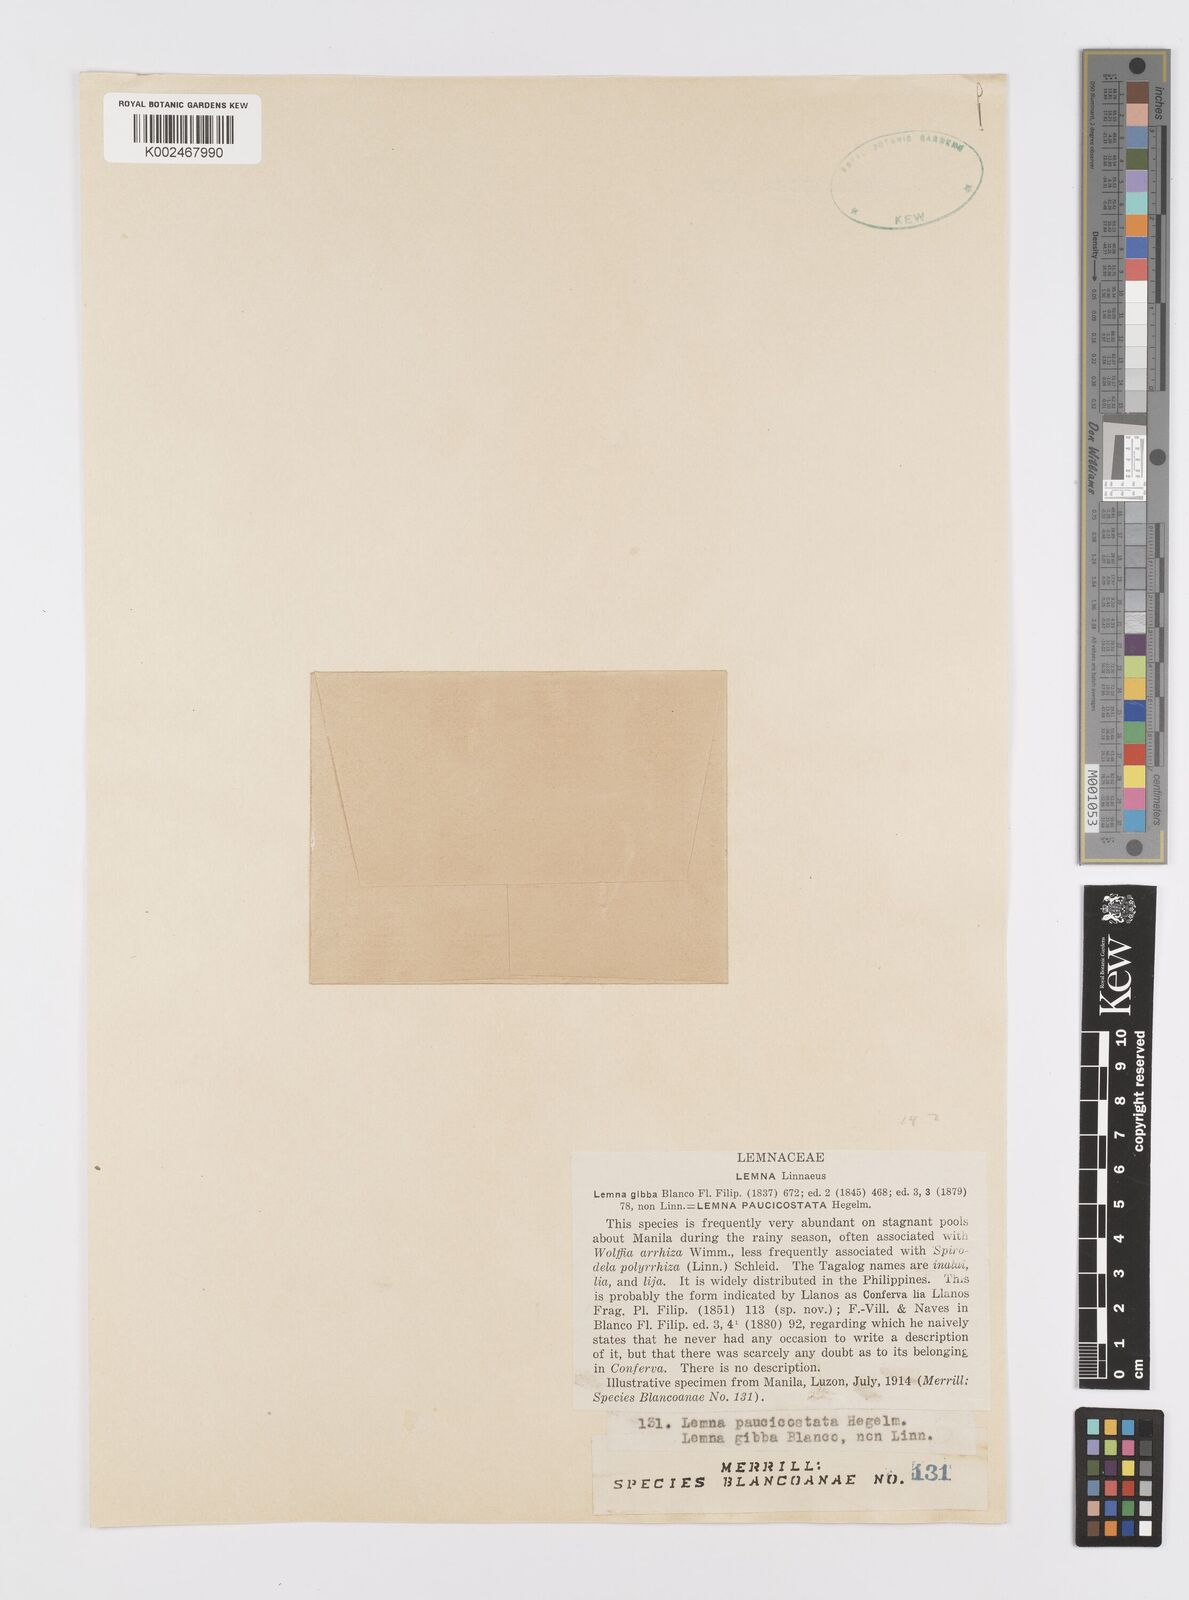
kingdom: Plantae
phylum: Tracheophyta
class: Liliopsida
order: Alismatales
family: Araceae
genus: Lemna
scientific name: Lemna aequinoctialis
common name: Duckweed
